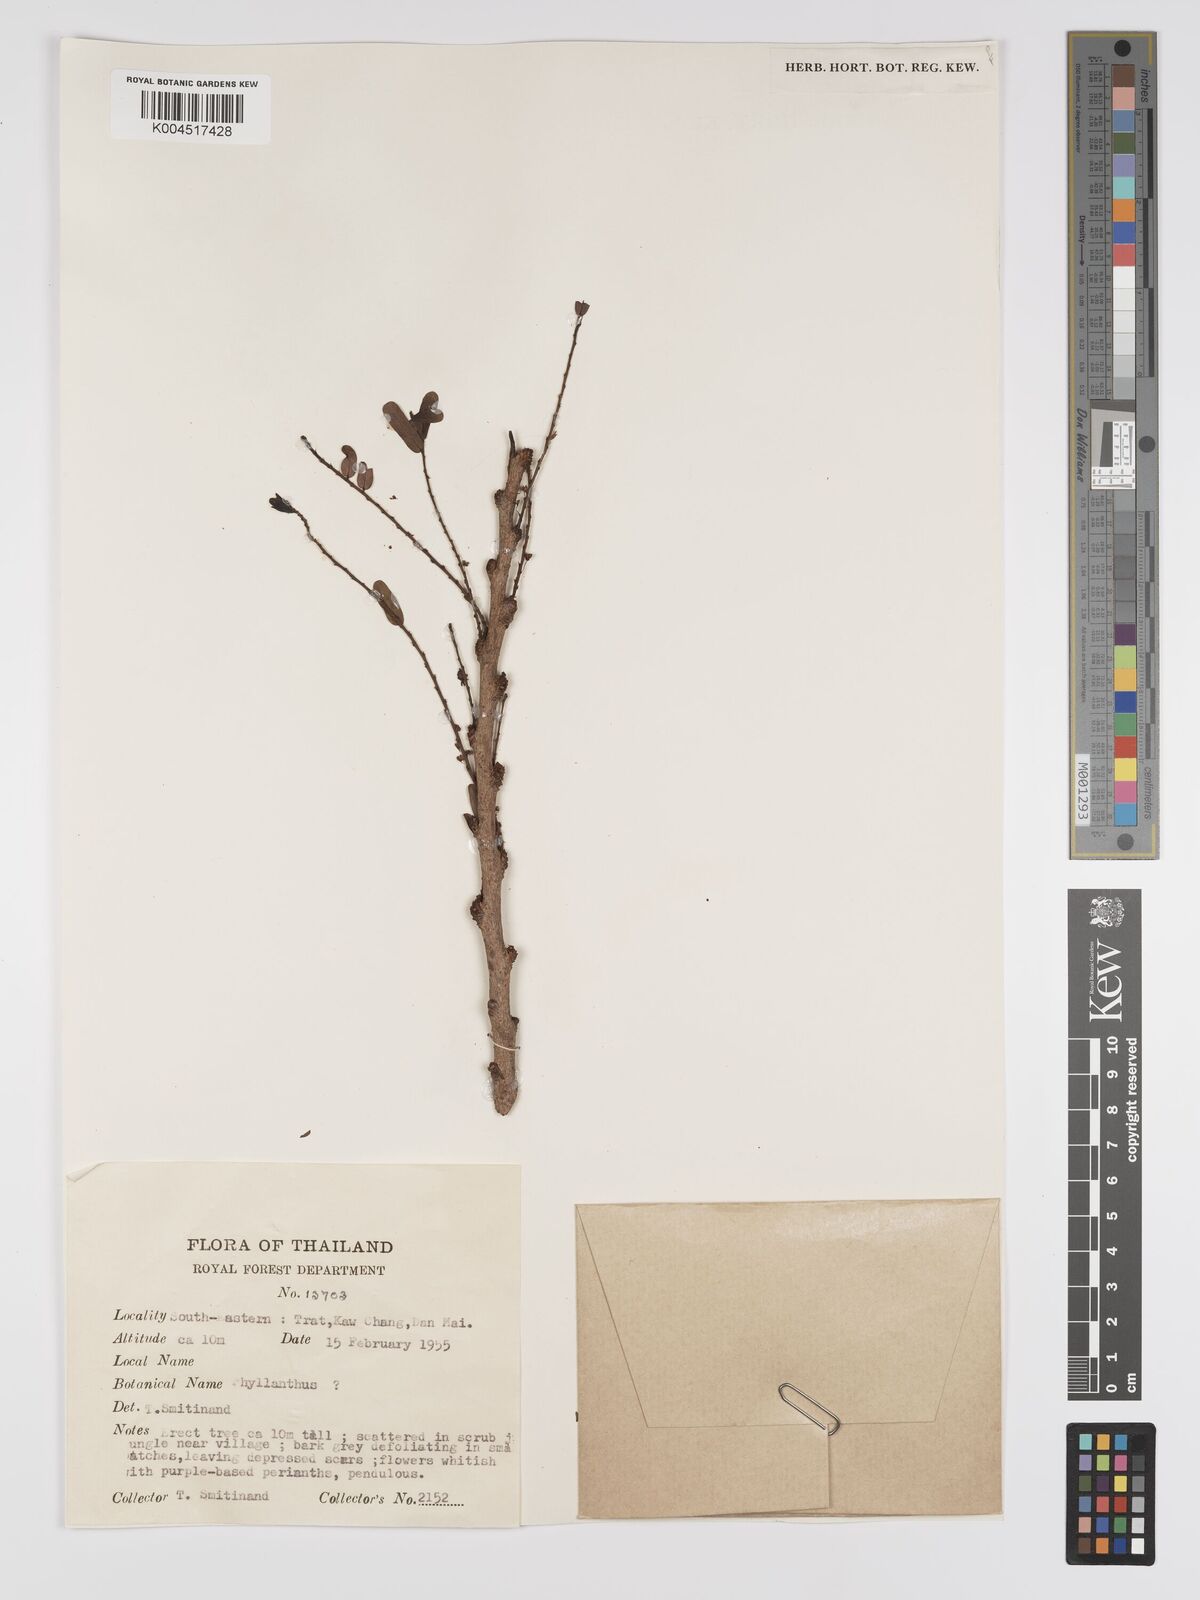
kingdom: Plantae
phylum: Tracheophyta
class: Magnoliopsida
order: Malpighiales
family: Phyllanthaceae
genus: Phyllanthus
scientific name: Phyllanthus
